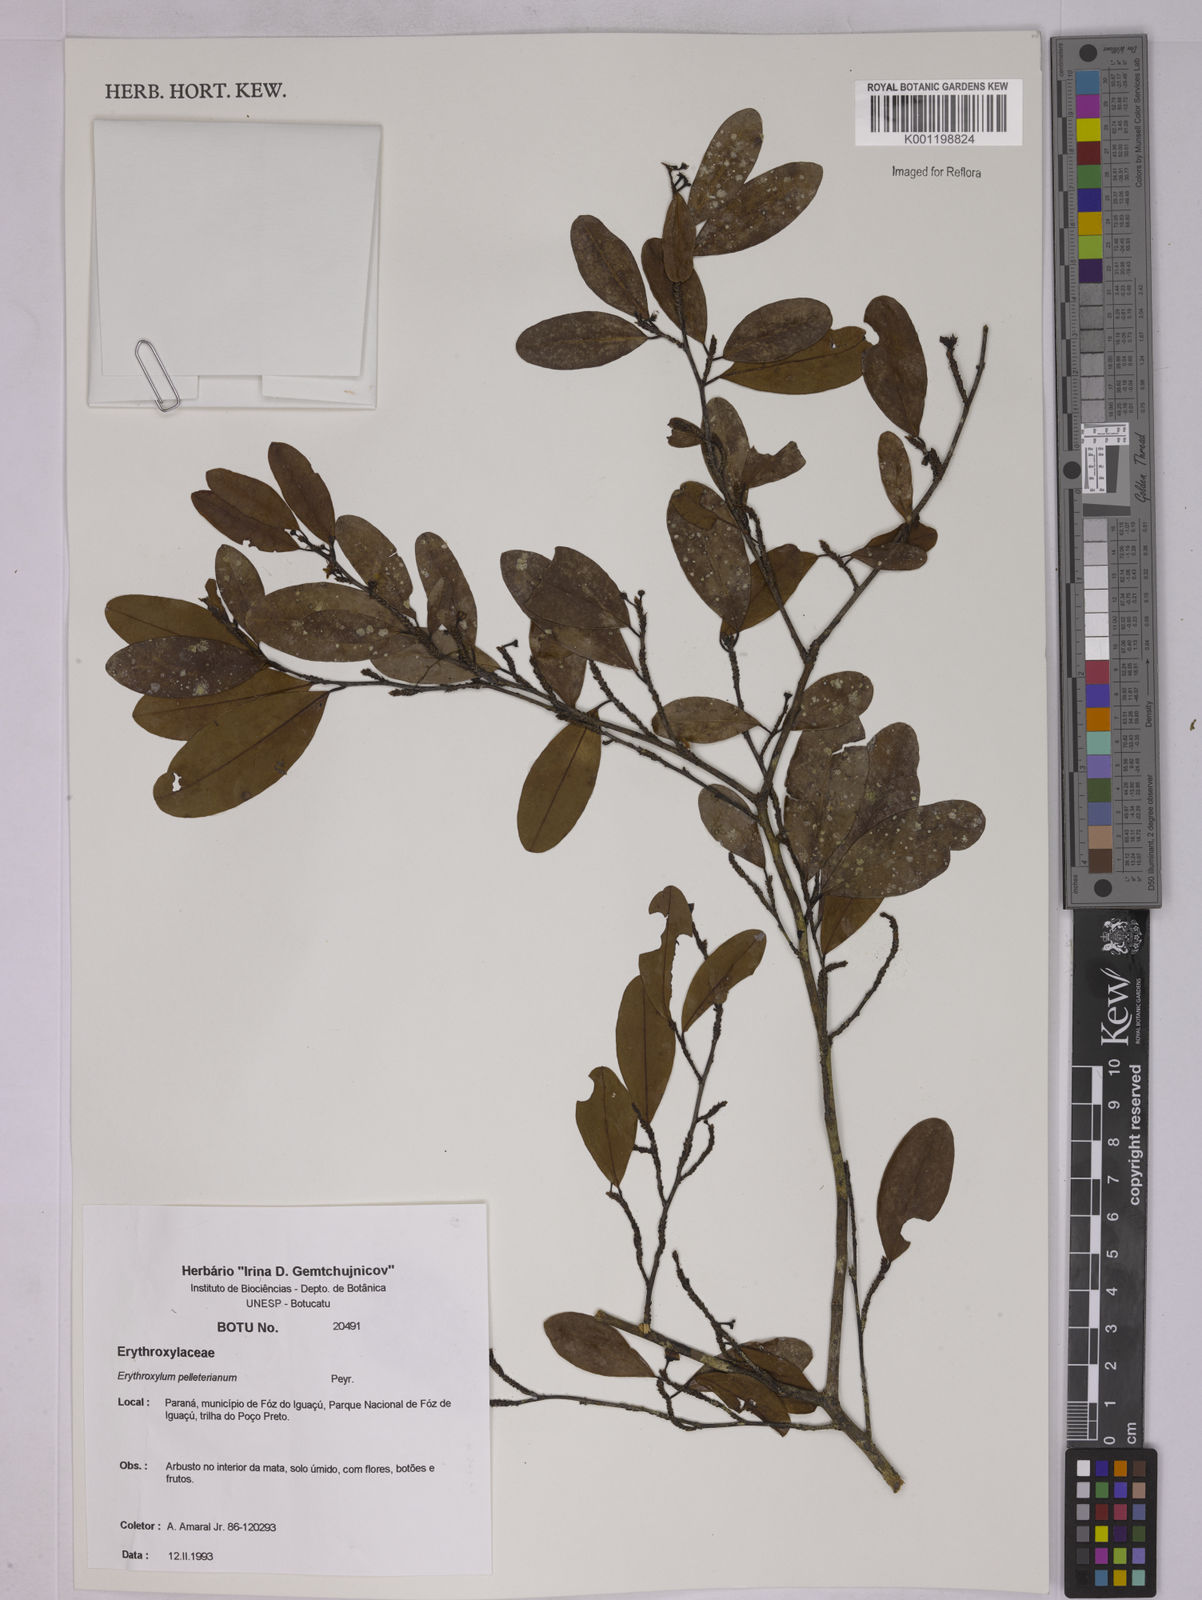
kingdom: Plantae
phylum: Tracheophyta
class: Magnoliopsida
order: Malpighiales
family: Erythroxylaceae
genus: Erythroxylum
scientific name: Erythroxylum pelleterianum
